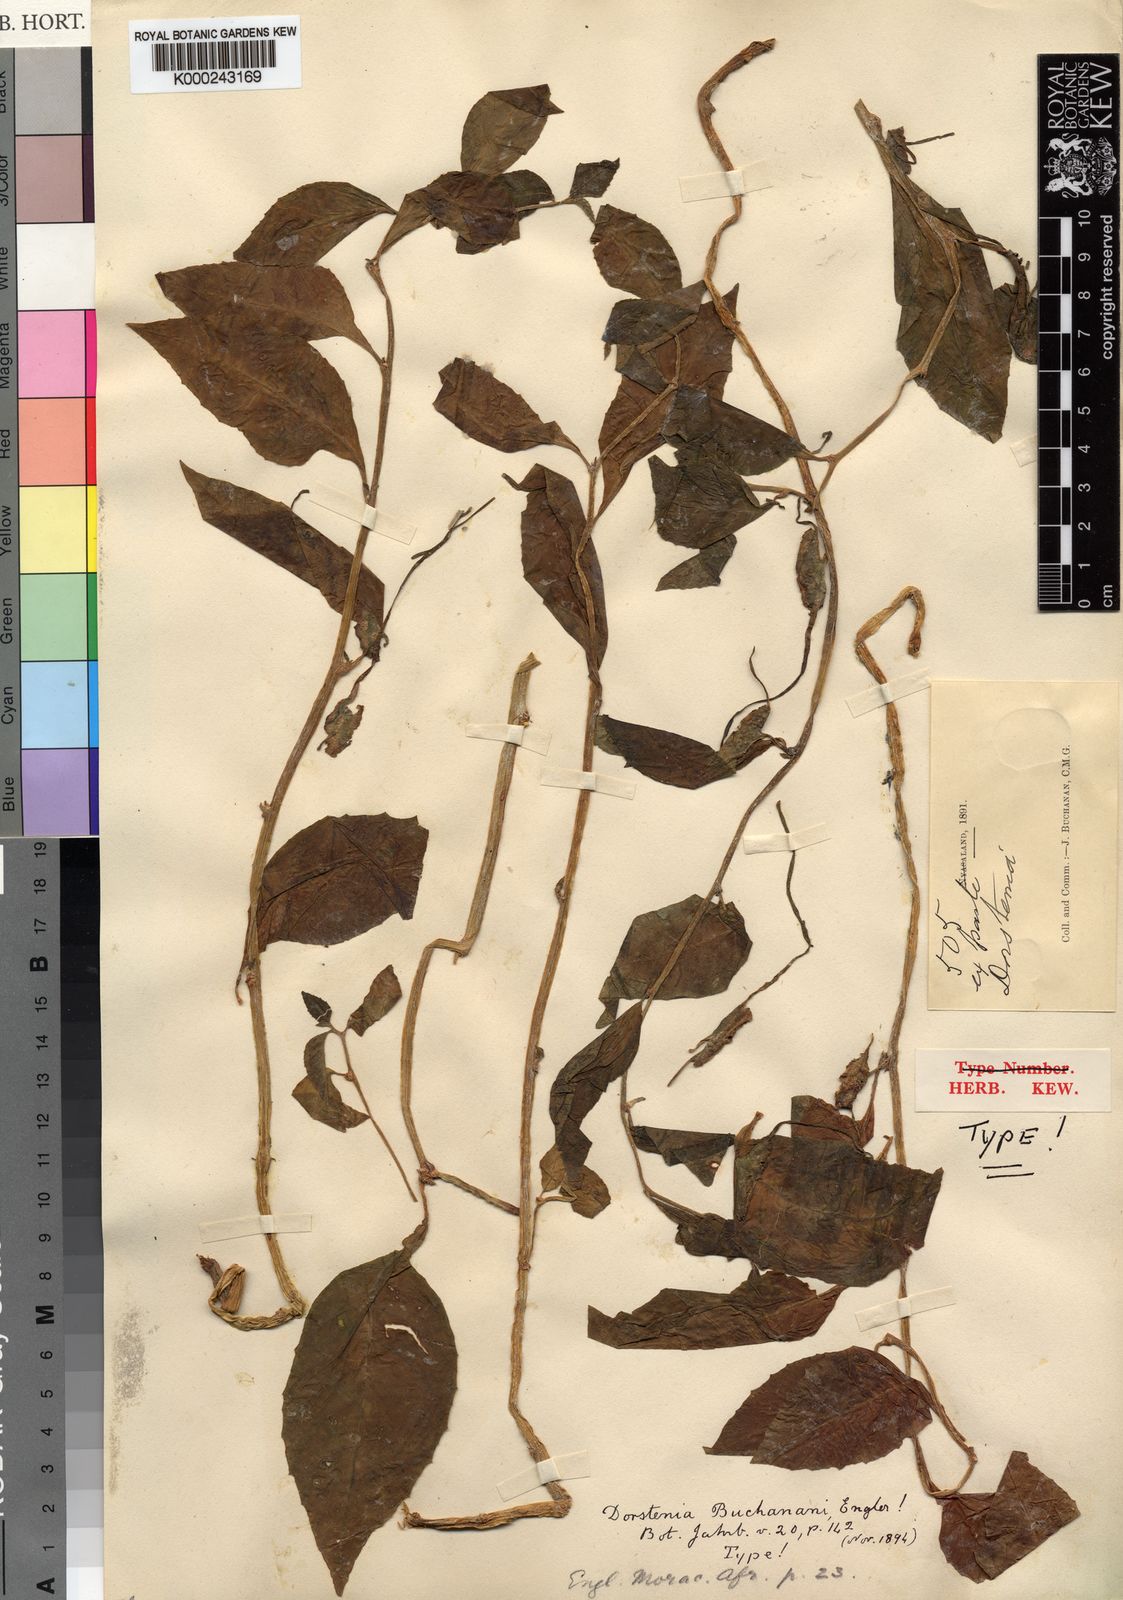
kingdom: Plantae
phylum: Tracheophyta
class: Magnoliopsida
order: Rosales
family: Moraceae
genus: Dorstenia
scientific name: Dorstenia buchananii
